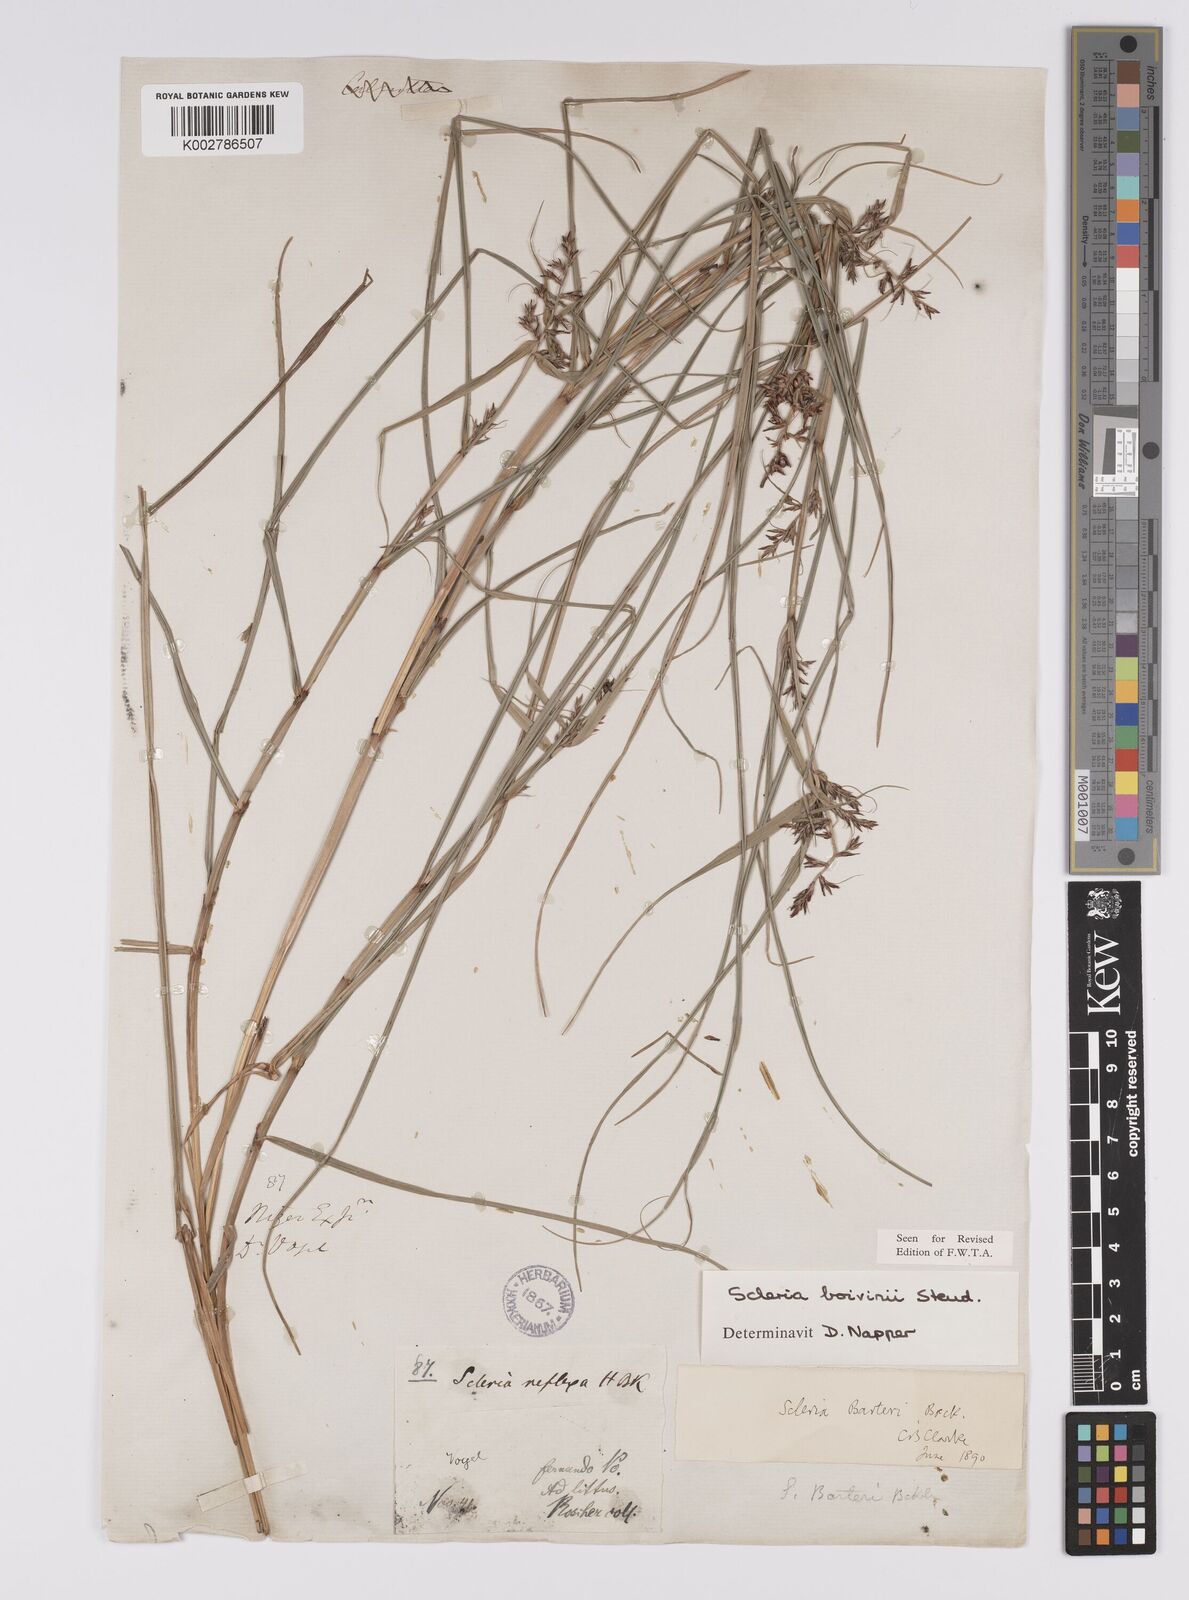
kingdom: Plantae
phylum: Tracheophyta
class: Liliopsida
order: Poales
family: Cyperaceae
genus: Scleria
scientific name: Scleria boivinii
